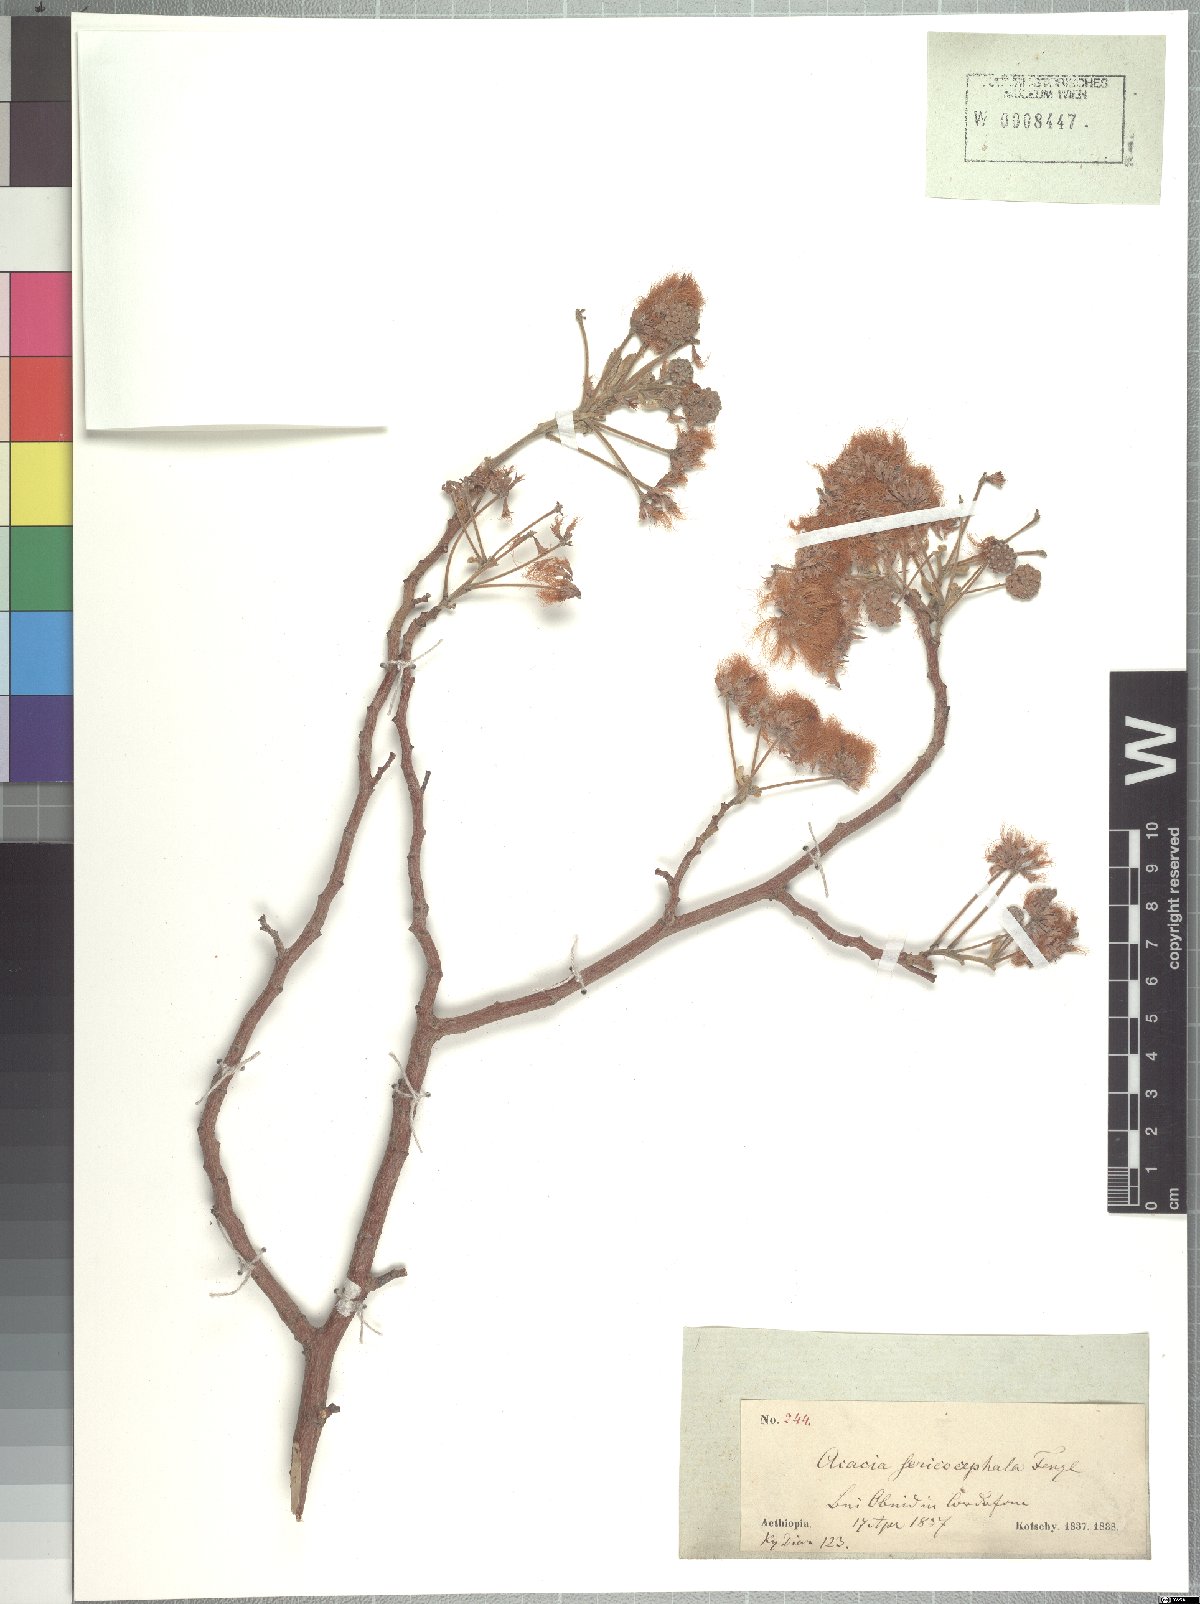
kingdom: Plantae
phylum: Tracheophyta
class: Magnoliopsida
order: Fabales
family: Fabaceae
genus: Albizia
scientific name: Albizia amara
